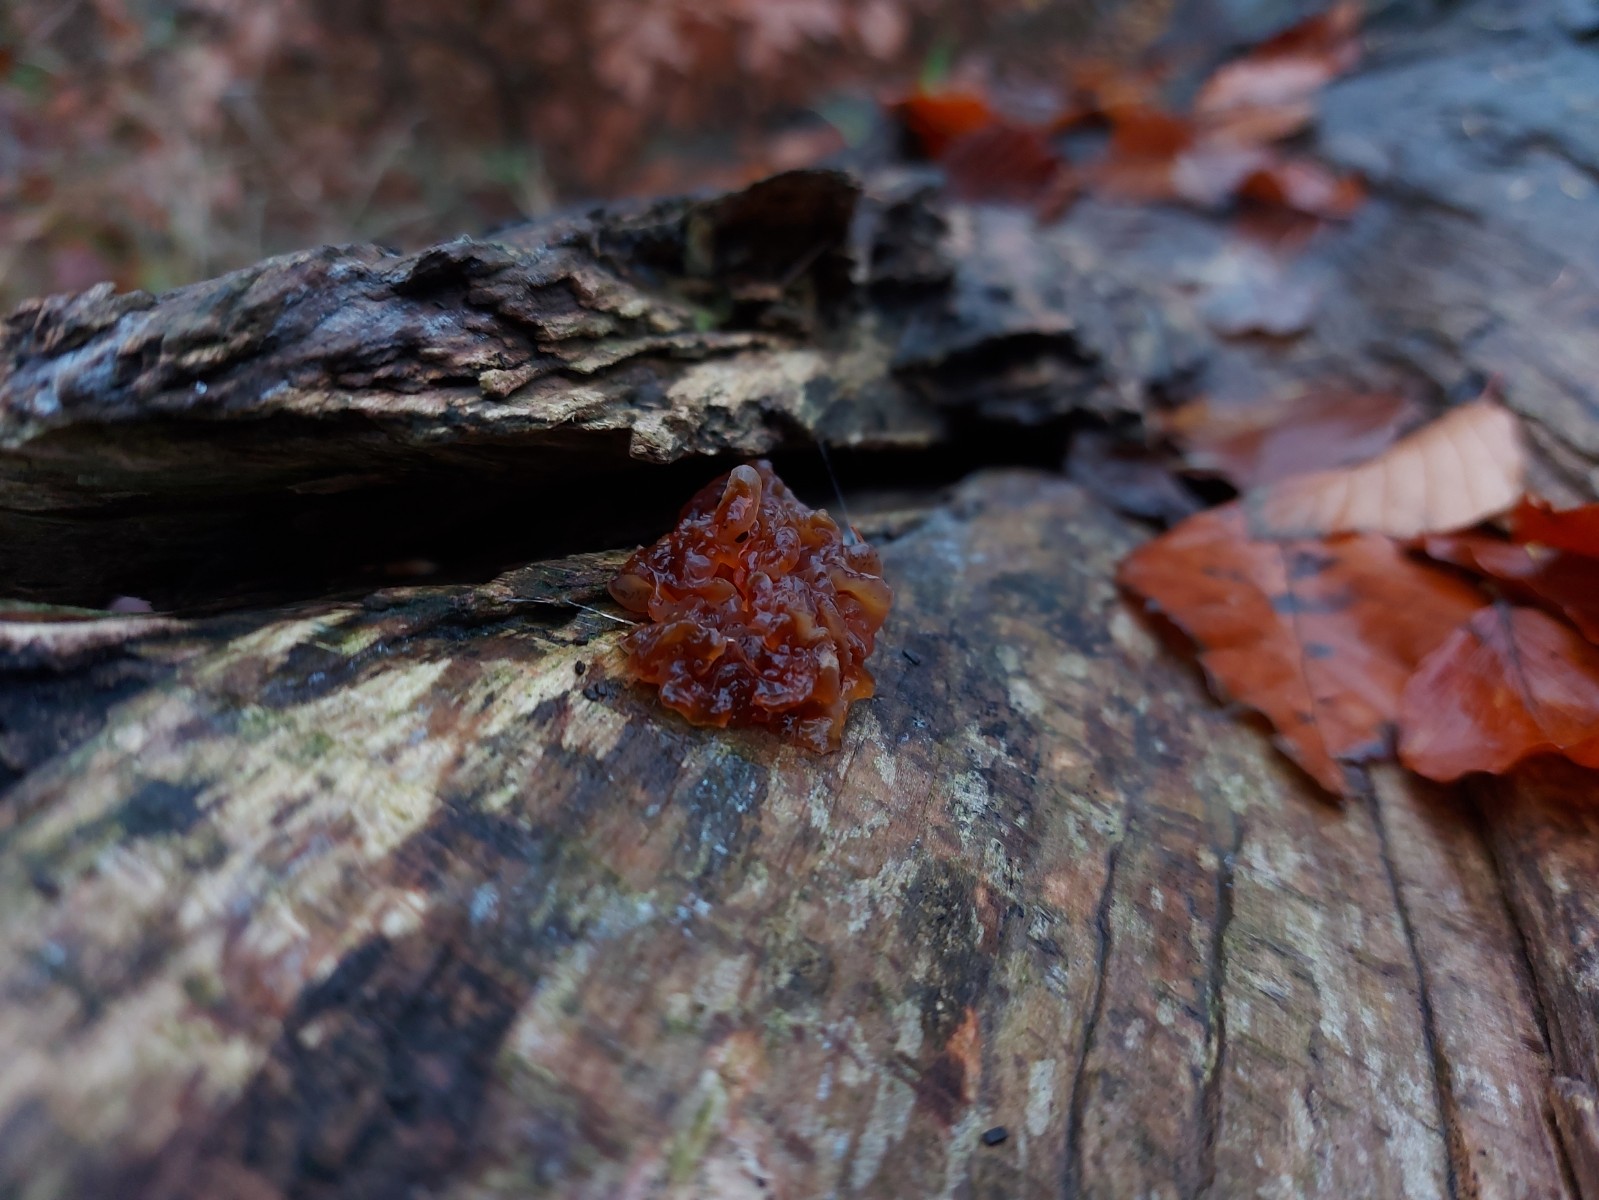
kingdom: Fungi
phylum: Basidiomycota
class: Tremellomycetes
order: Tremellales
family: Tremellaceae
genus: Phaeotremella
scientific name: Phaeotremella frondosa
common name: kæmpe-bævresvamp
